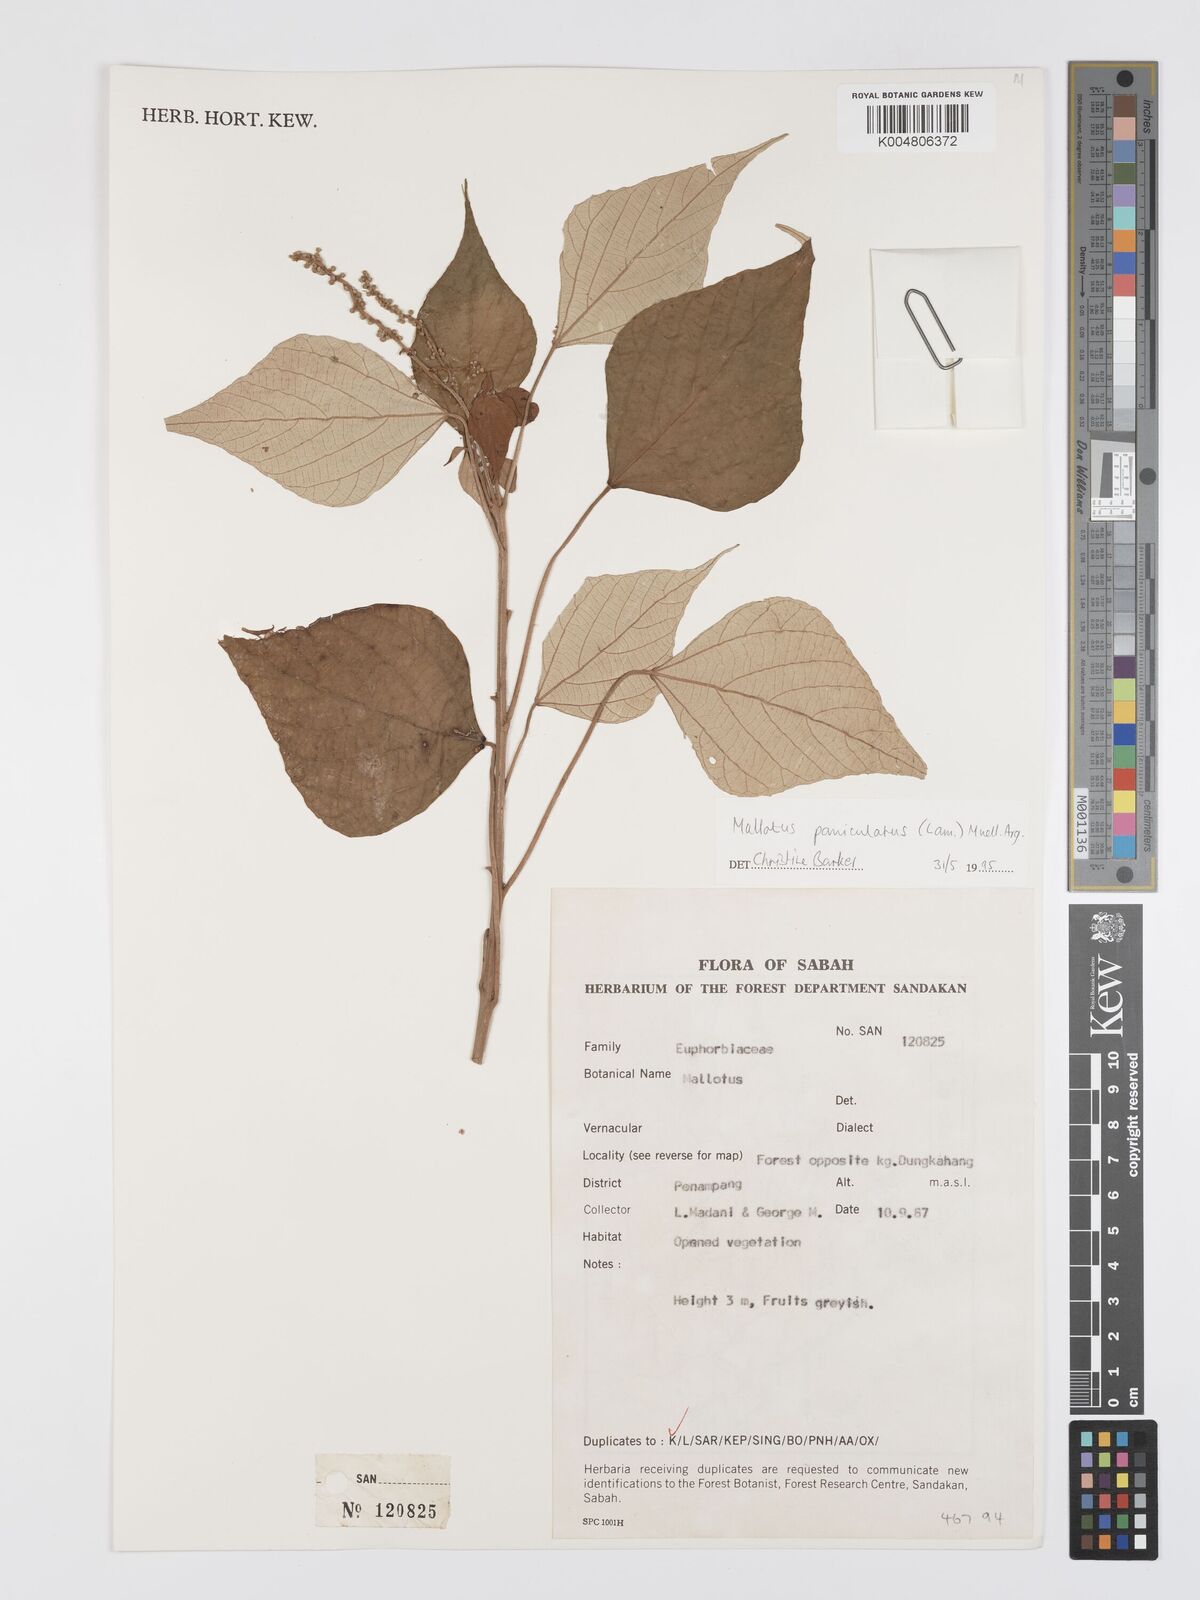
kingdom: Plantae
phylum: Tracheophyta
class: Magnoliopsida
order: Malpighiales
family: Euphorbiaceae
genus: Mallotus
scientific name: Mallotus paniculatus
